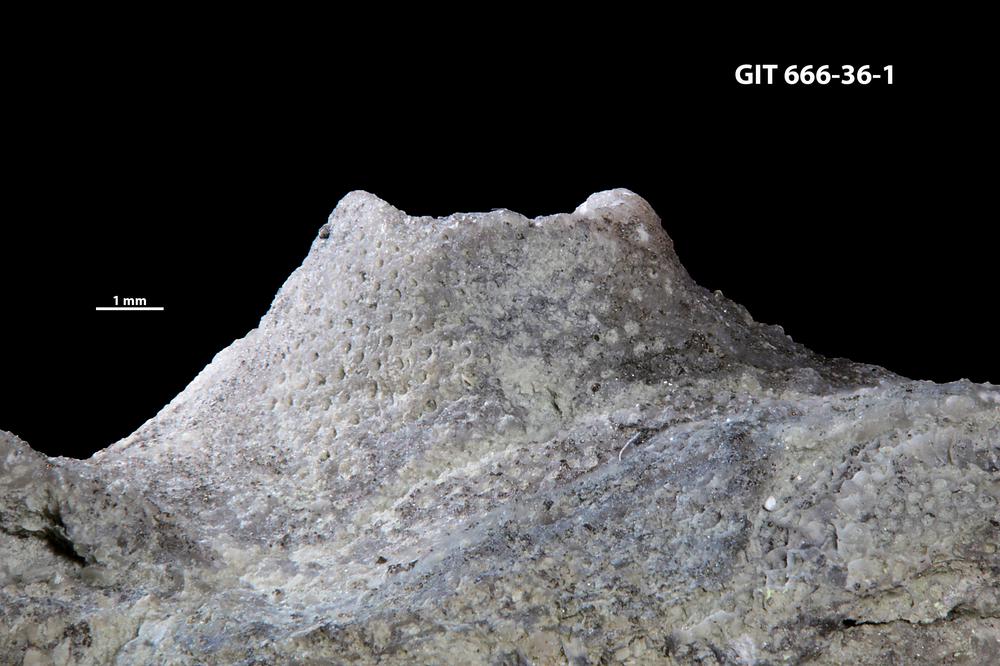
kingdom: Animalia
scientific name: Animalia
